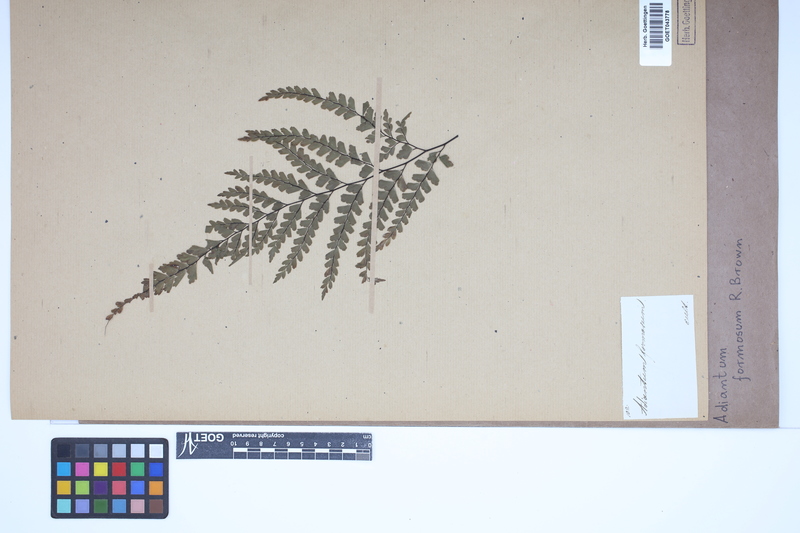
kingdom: Plantae
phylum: Tracheophyta
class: Polypodiopsida
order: Polypodiales
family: Pteridaceae
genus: Adiantum
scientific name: Adiantum formosum
